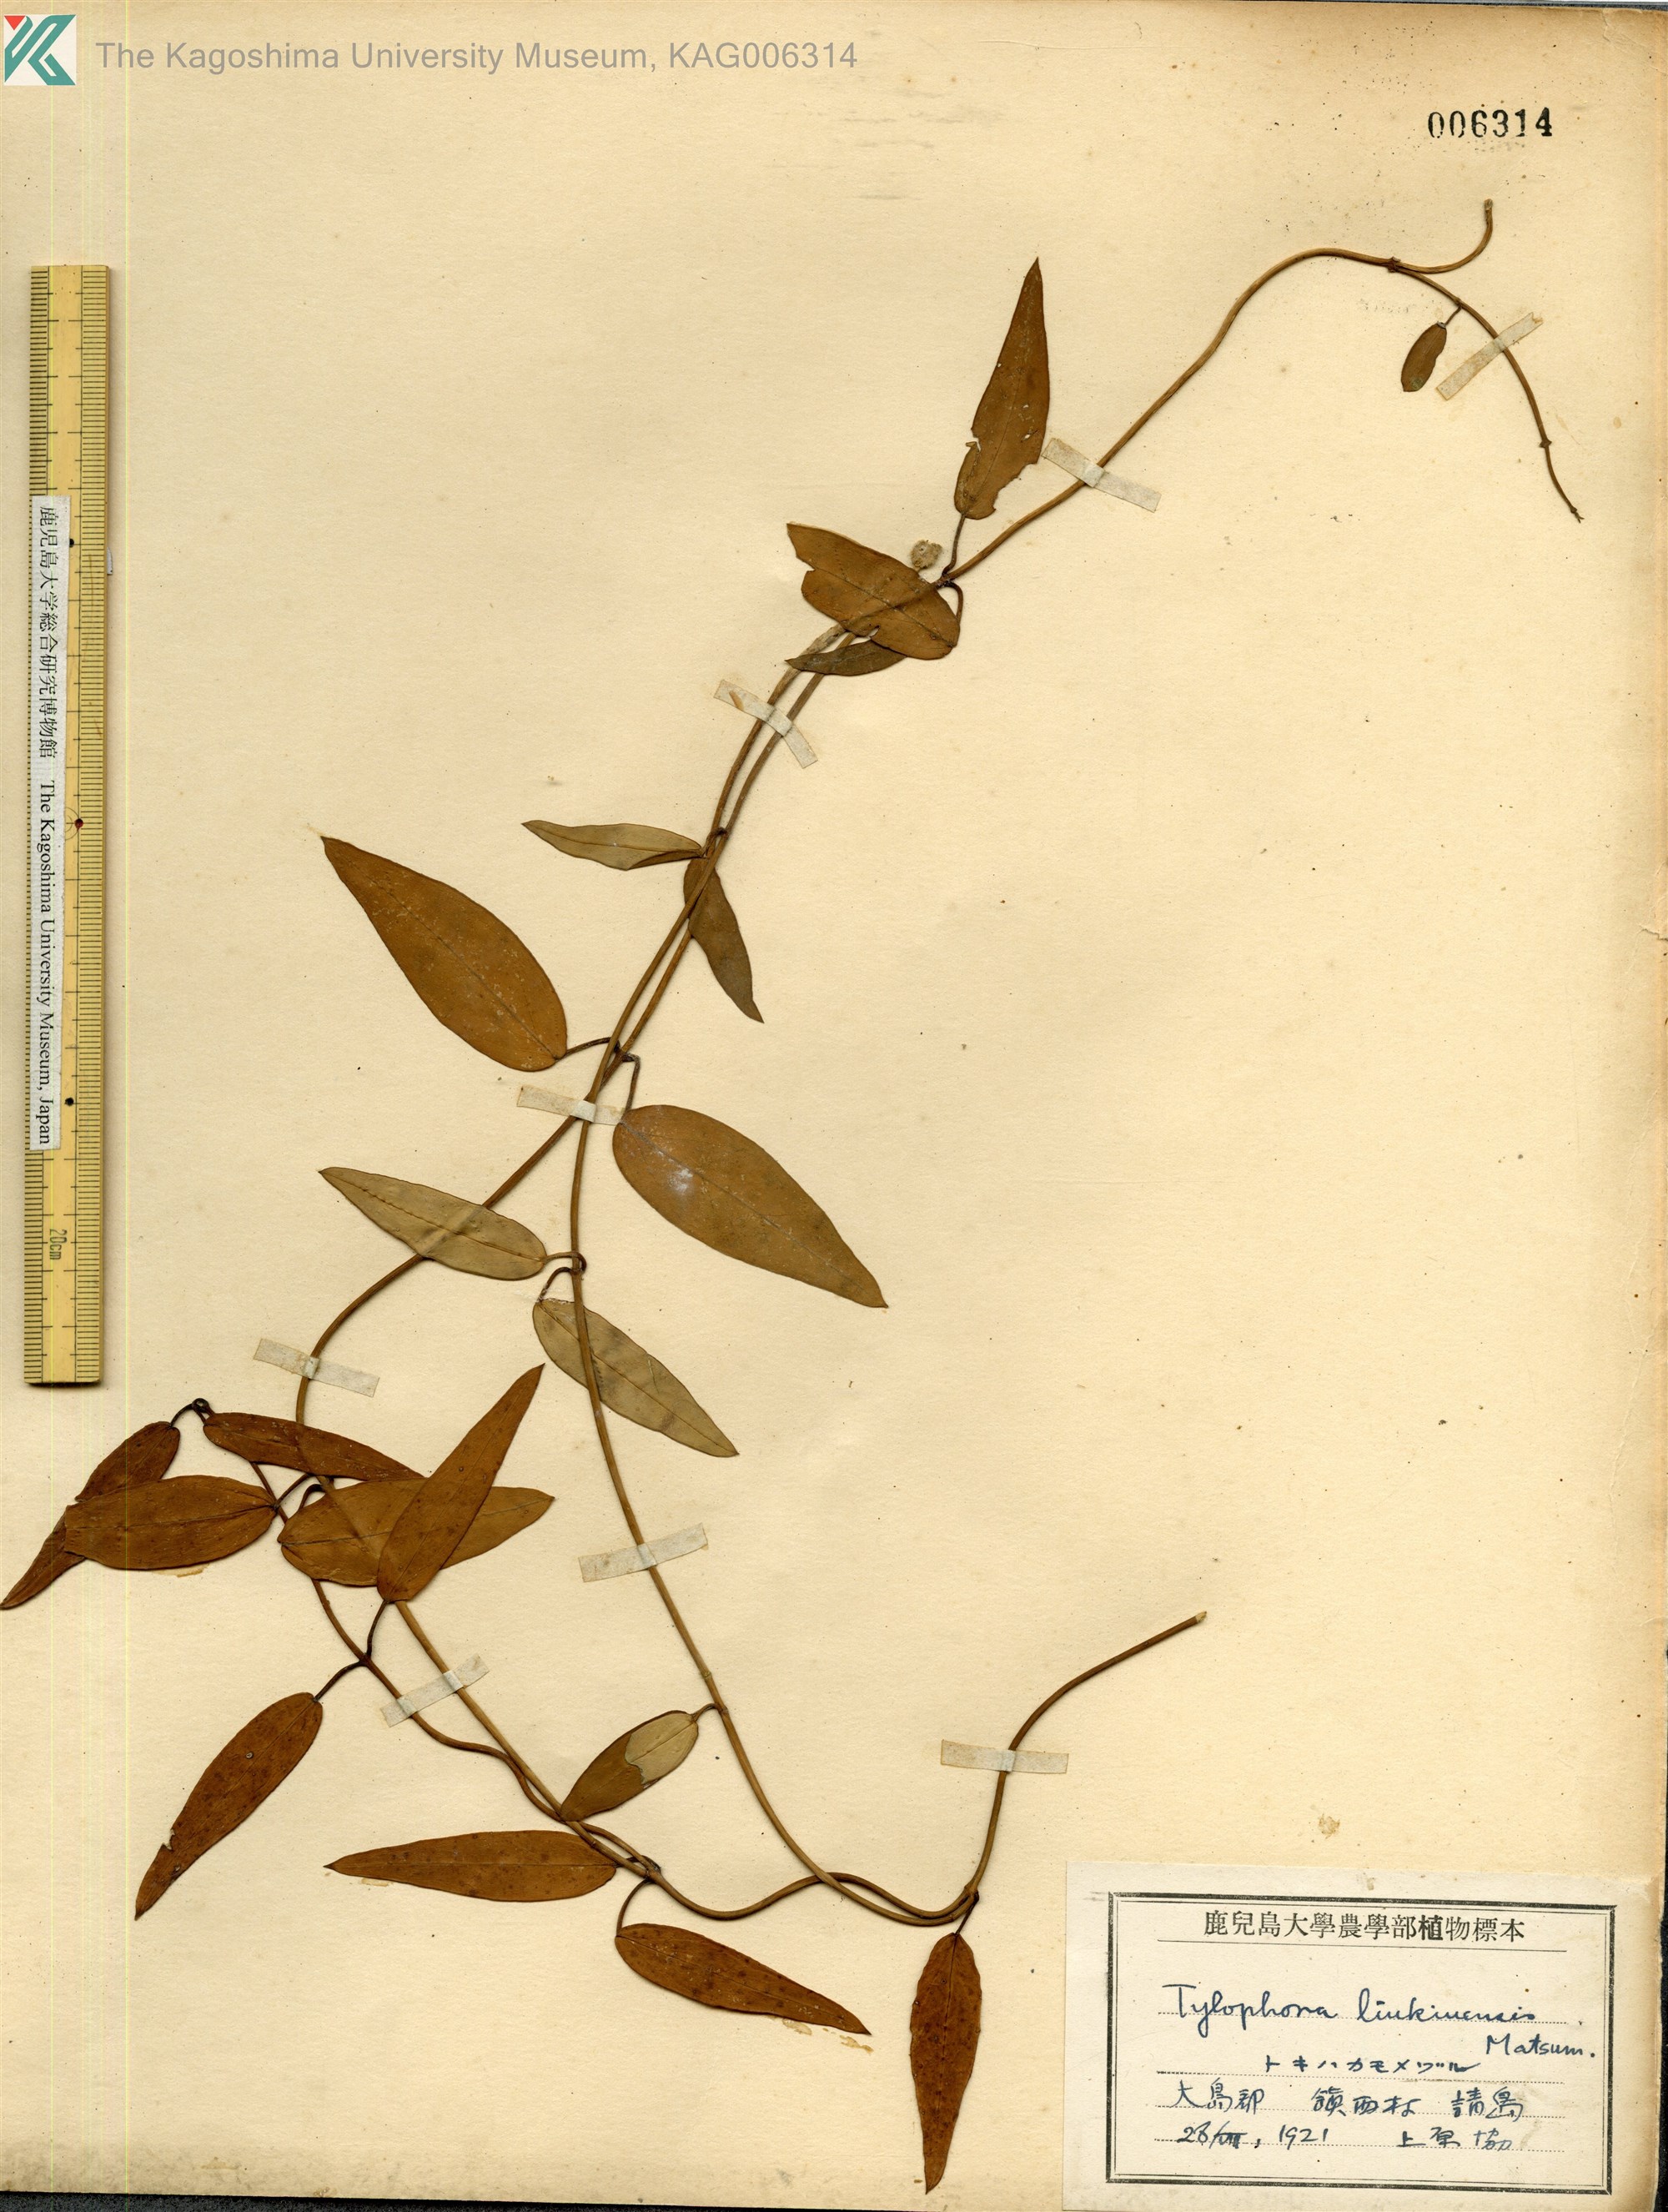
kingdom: Plantae
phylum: Tracheophyta
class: Magnoliopsida
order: Gentianales
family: Apocynaceae
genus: Vincetoxicum
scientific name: Vincetoxicum sieboldii
